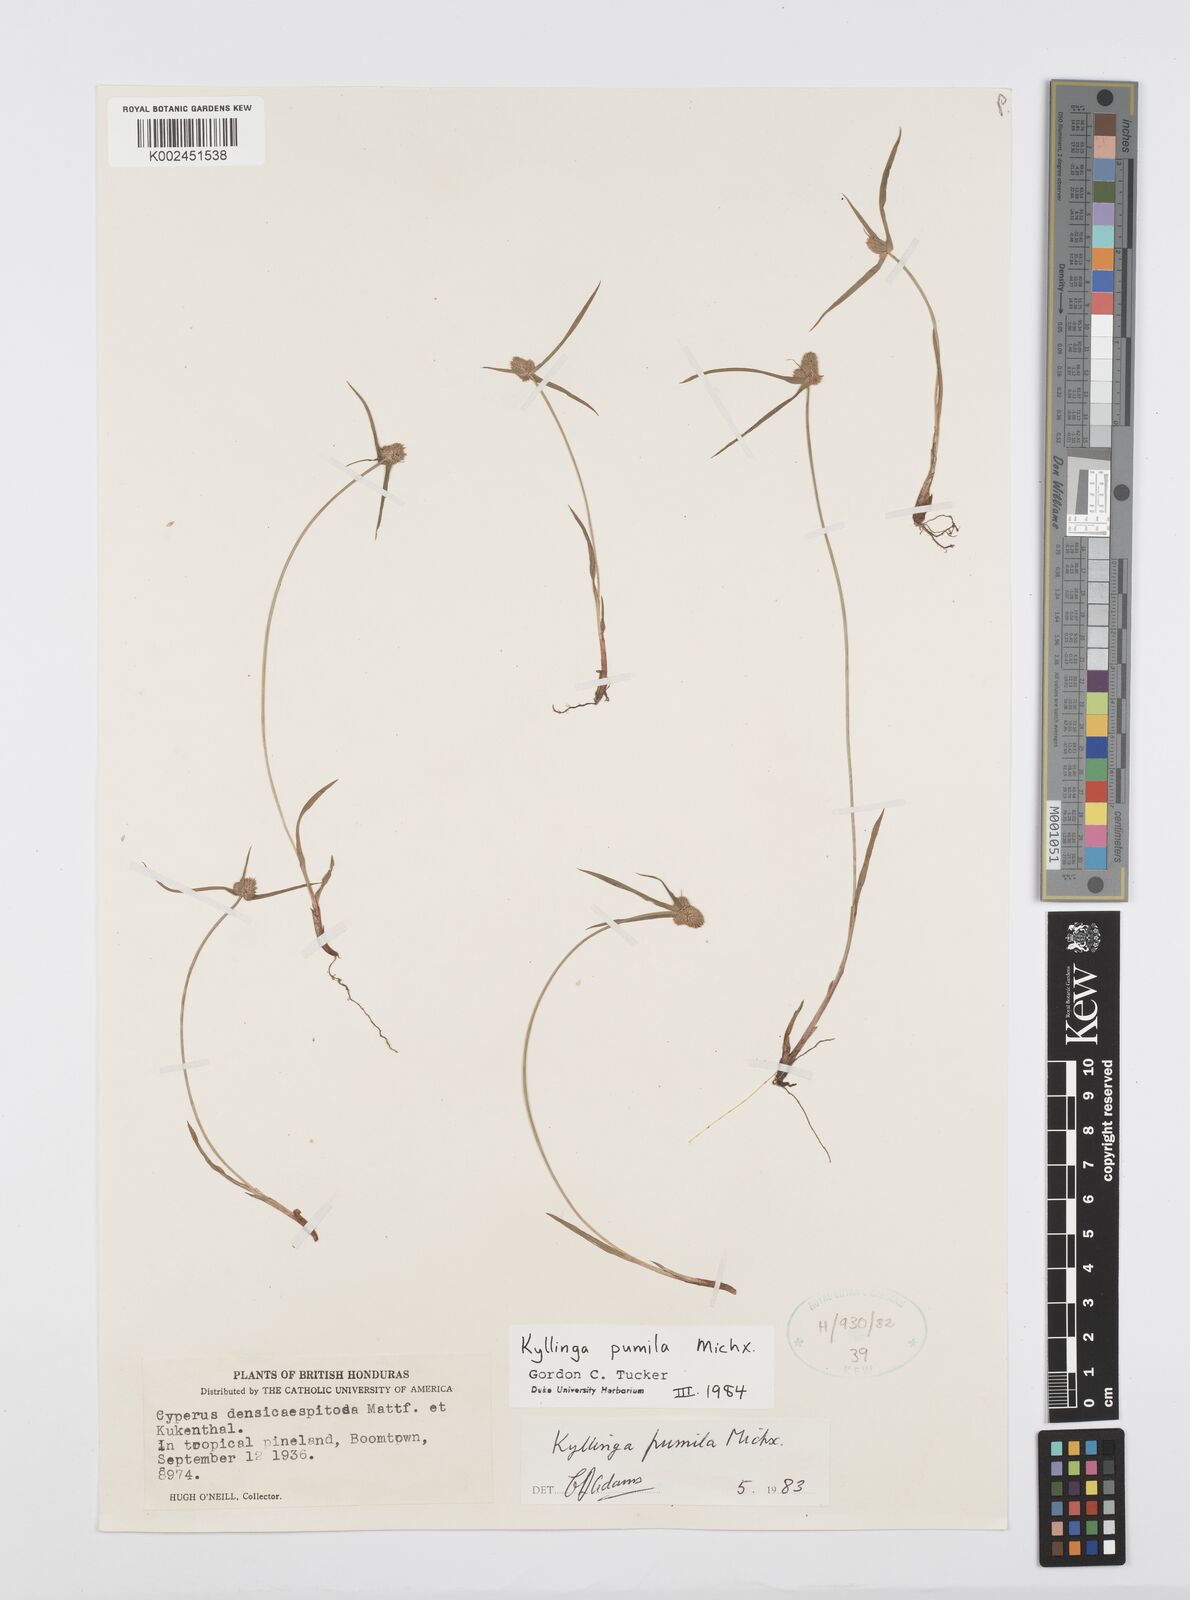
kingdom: Plantae
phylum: Tracheophyta
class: Liliopsida
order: Poales
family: Cyperaceae
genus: Cyperus
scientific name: Cyperus hortensis
